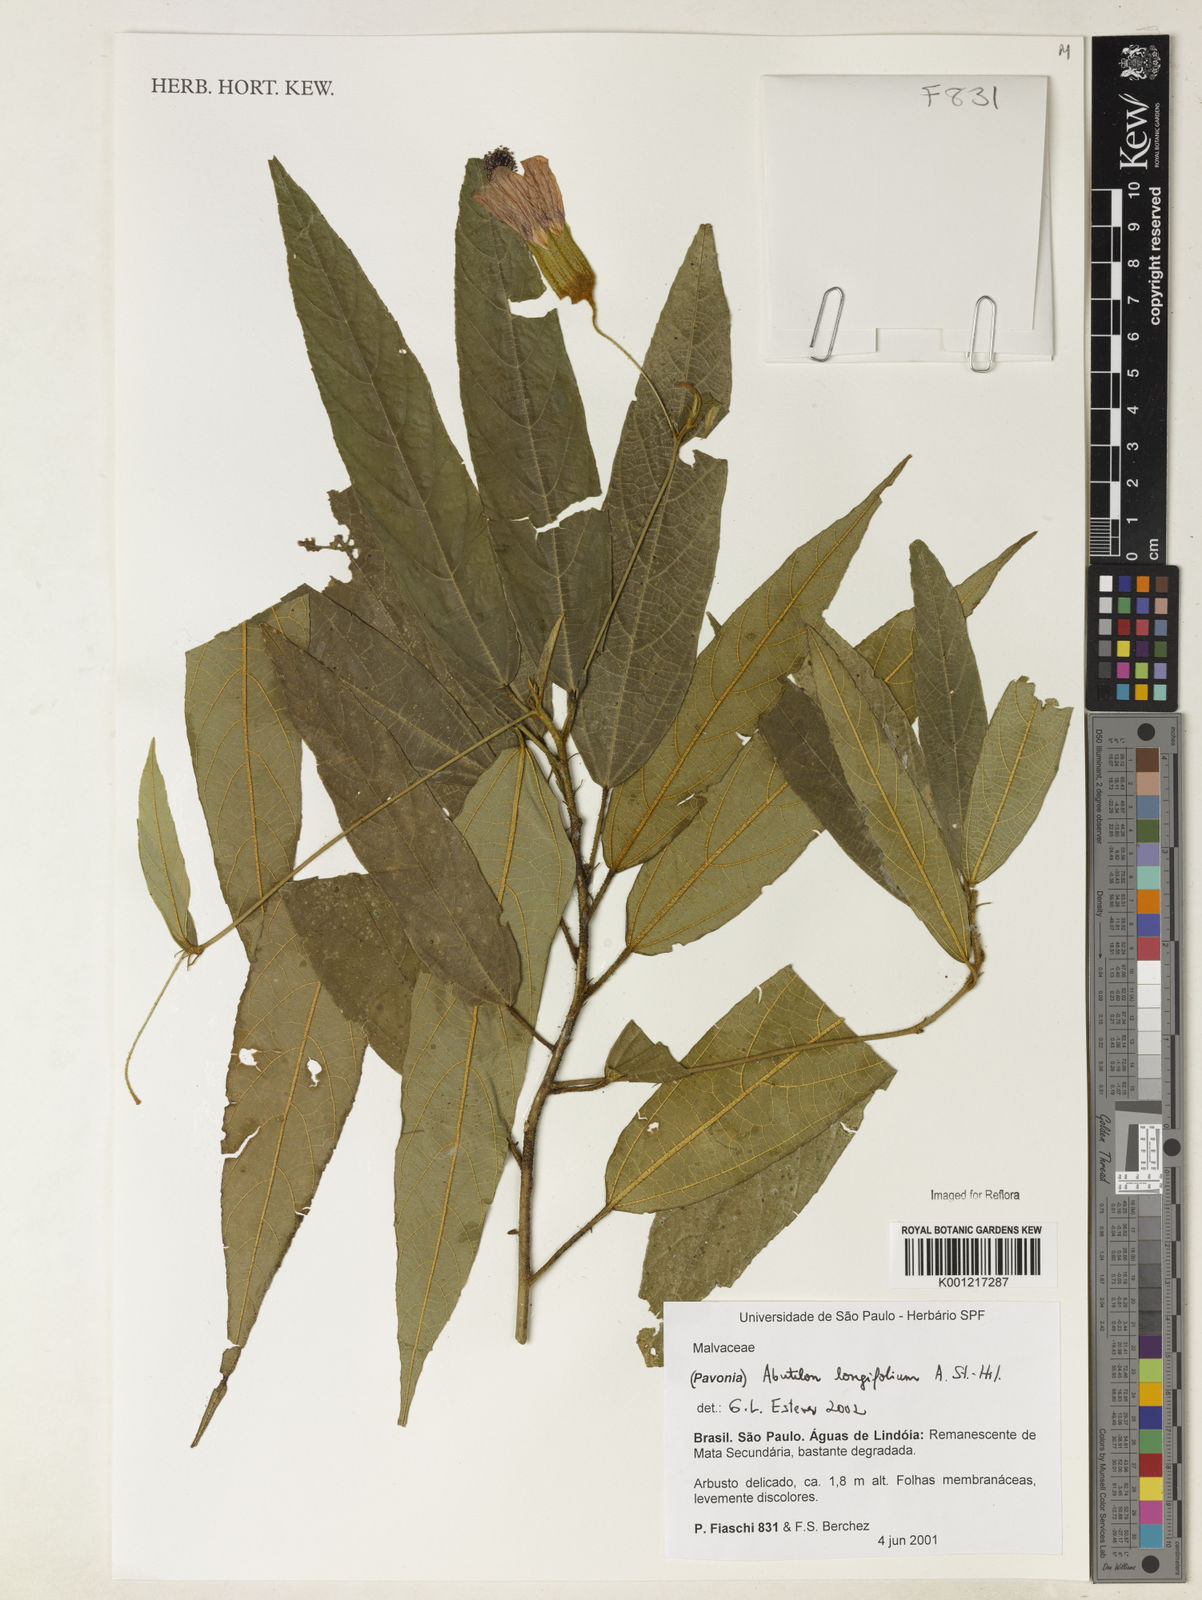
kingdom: Plantae
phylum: Tracheophyta
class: Magnoliopsida
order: Malvales
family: Malvaceae
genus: Callianthe
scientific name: Callianthe longifolia
